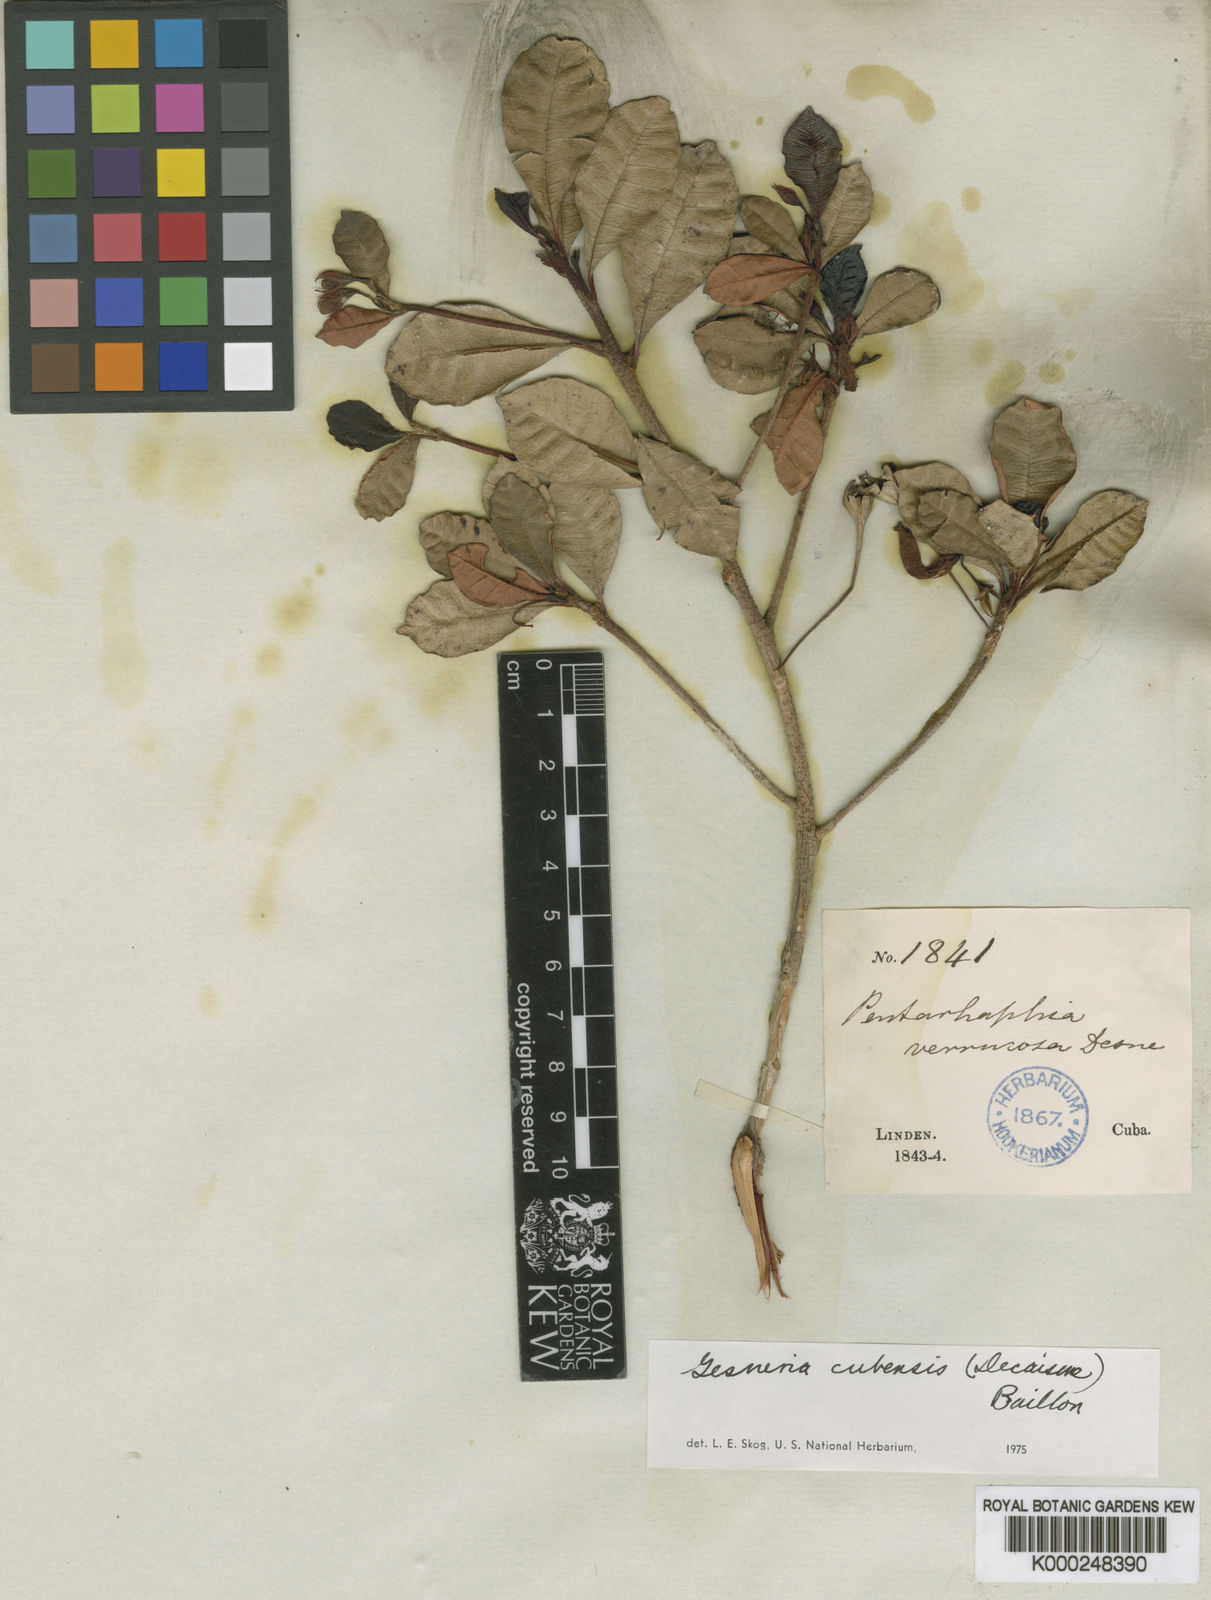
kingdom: Plantae
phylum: Tracheophyta
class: Magnoliopsida
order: Lamiales
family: Gesneriaceae
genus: Gesneria
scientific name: Gesneria cubensis
